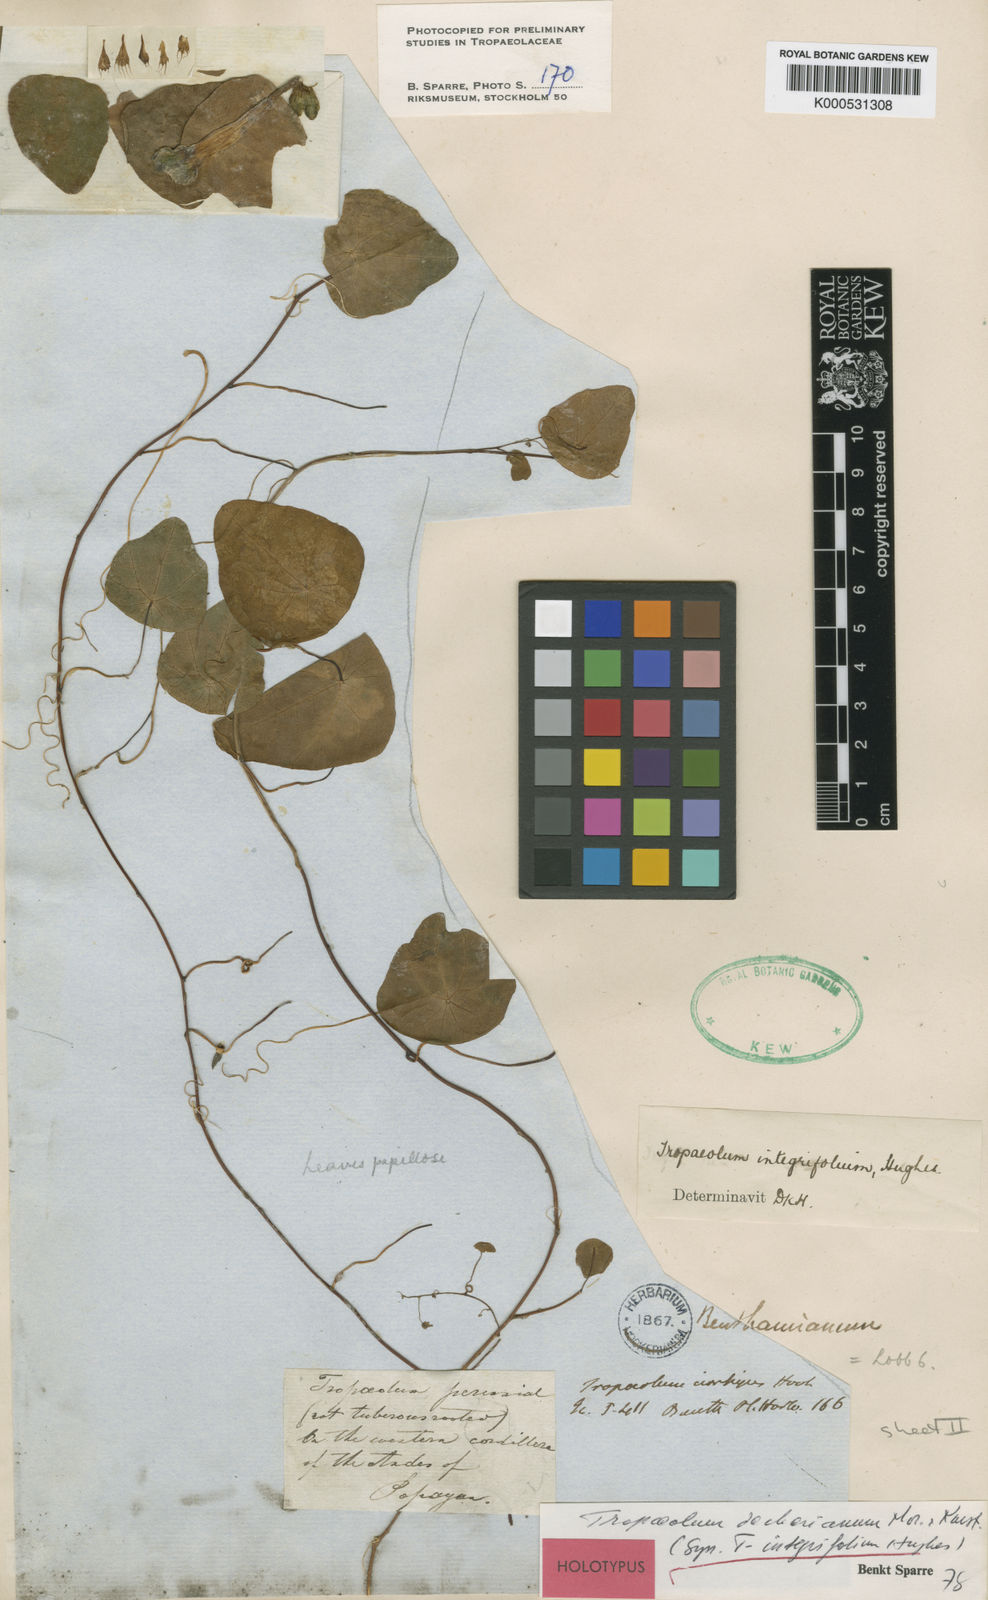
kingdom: Plantae
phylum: Tracheophyta
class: Magnoliopsida
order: Brassicales
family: Tropaeolaceae
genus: Tropaeolum
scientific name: Tropaeolum deckerianum
